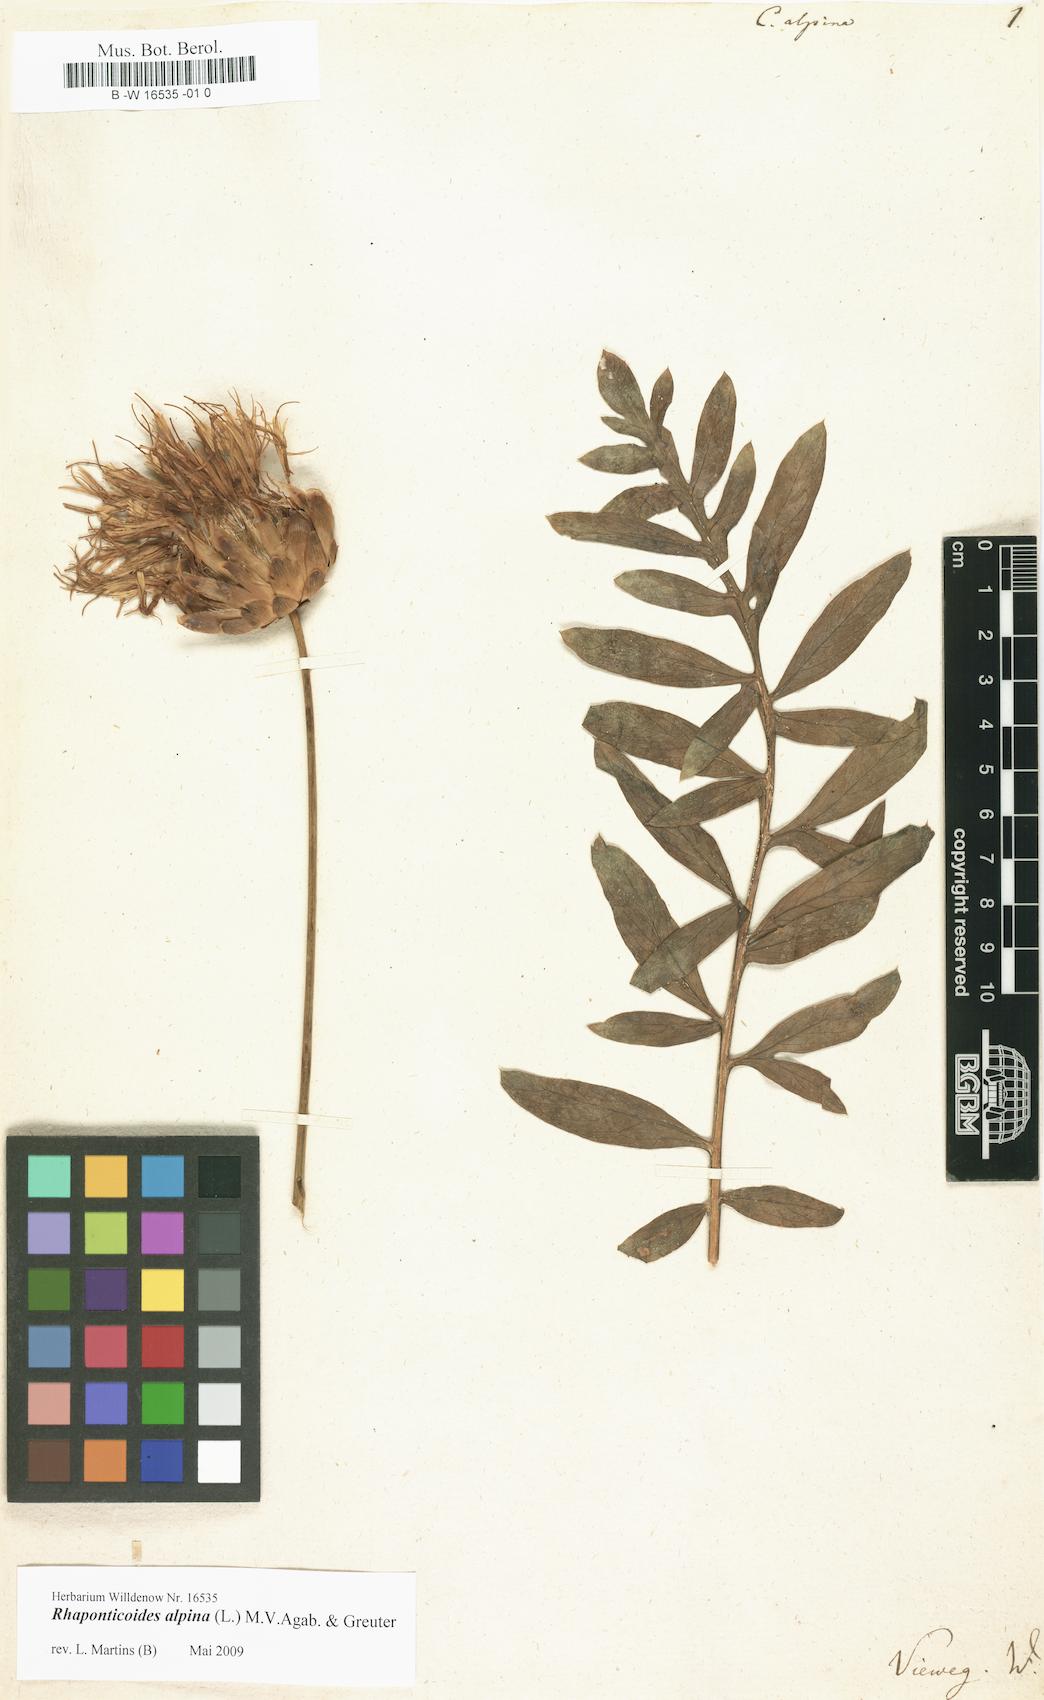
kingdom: Plantae
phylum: Tracheophyta
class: Magnoliopsida
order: Asterales
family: Asteraceae
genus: Rhaponticoides
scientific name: Rhaponticoides alpina
